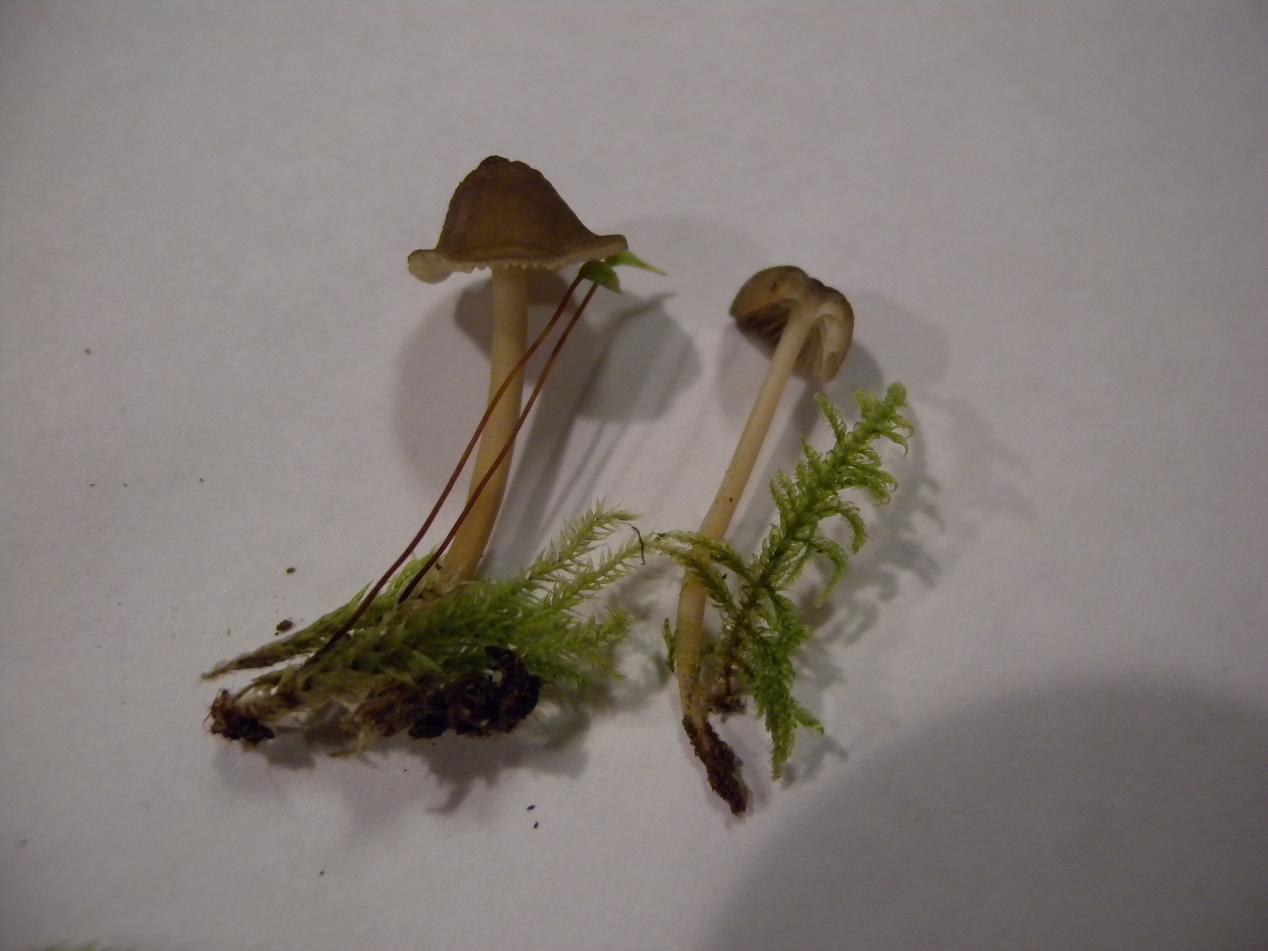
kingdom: Fungi
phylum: Basidiomycota
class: Agaricomycetes
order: Agaricales
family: Porotheleaceae
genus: Phloeomana
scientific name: Phloeomana speirea
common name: kvist-huesvamp
